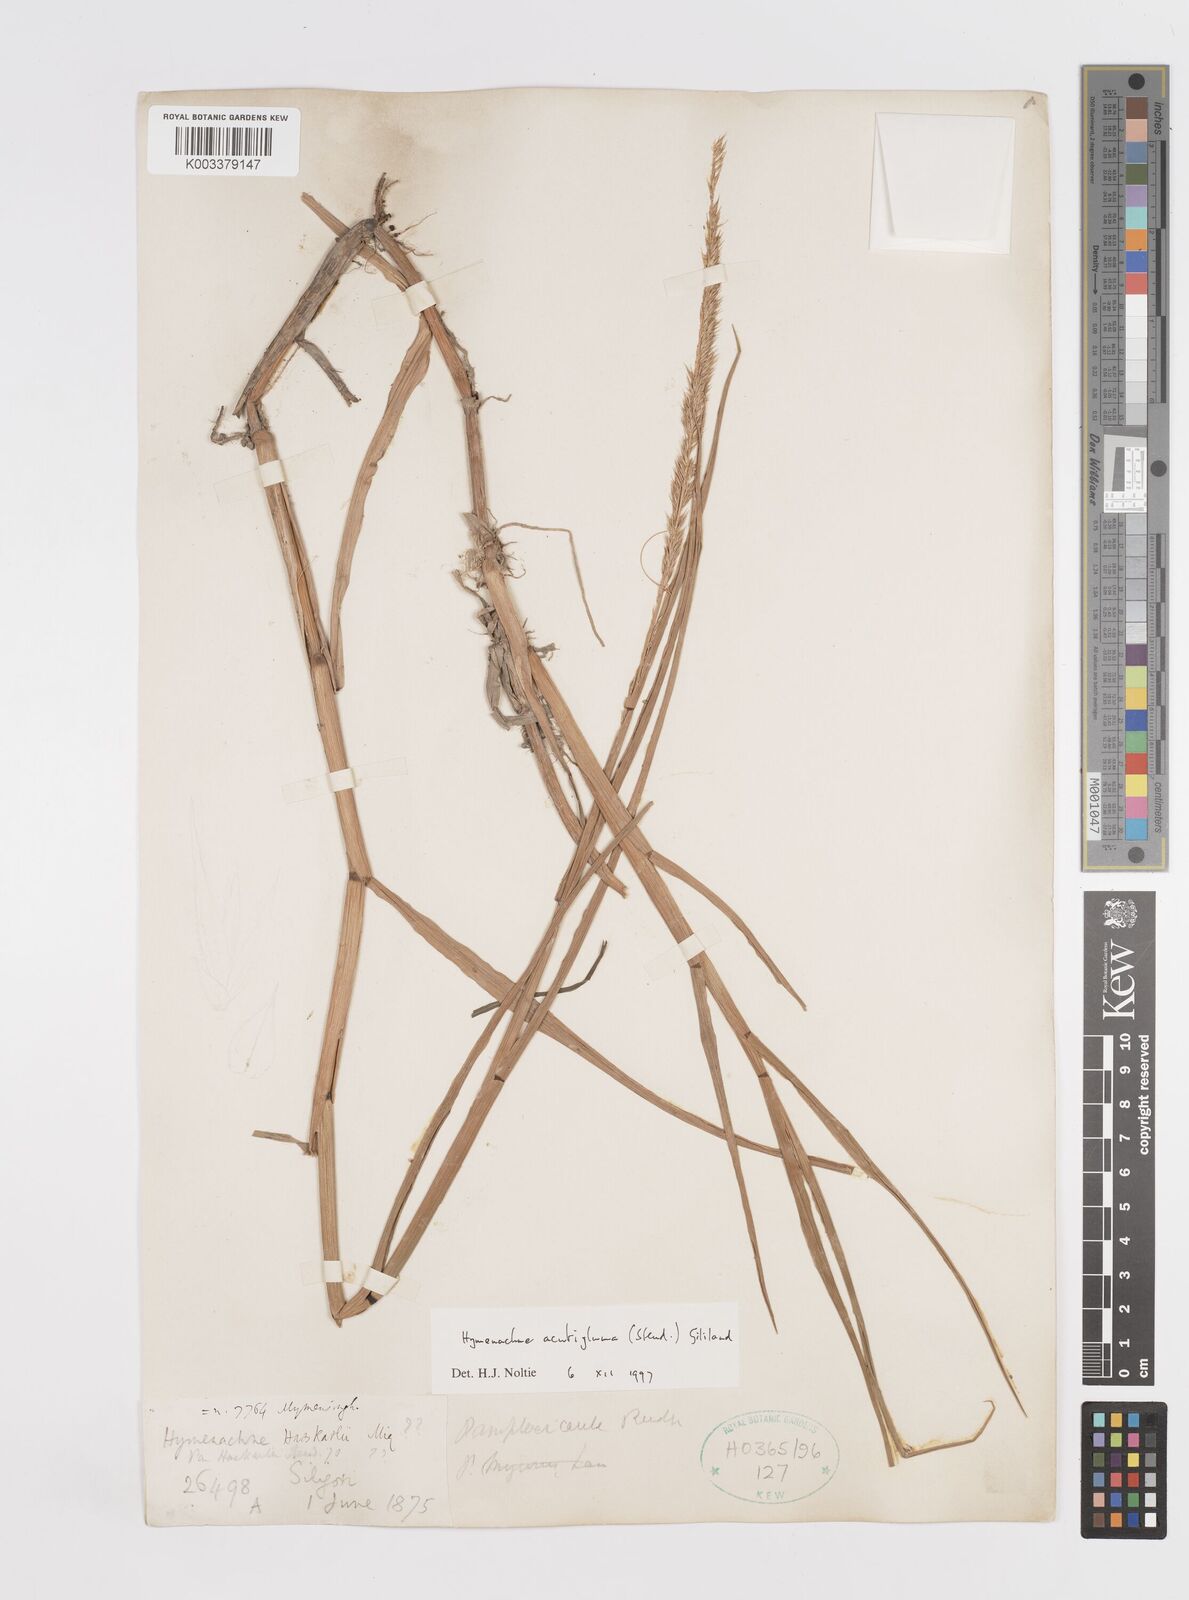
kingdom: Plantae
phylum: Tracheophyta
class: Liliopsida
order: Poales
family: Poaceae
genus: Hymenachne
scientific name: Hymenachne amplexicaulis
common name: Olive hymenachne
